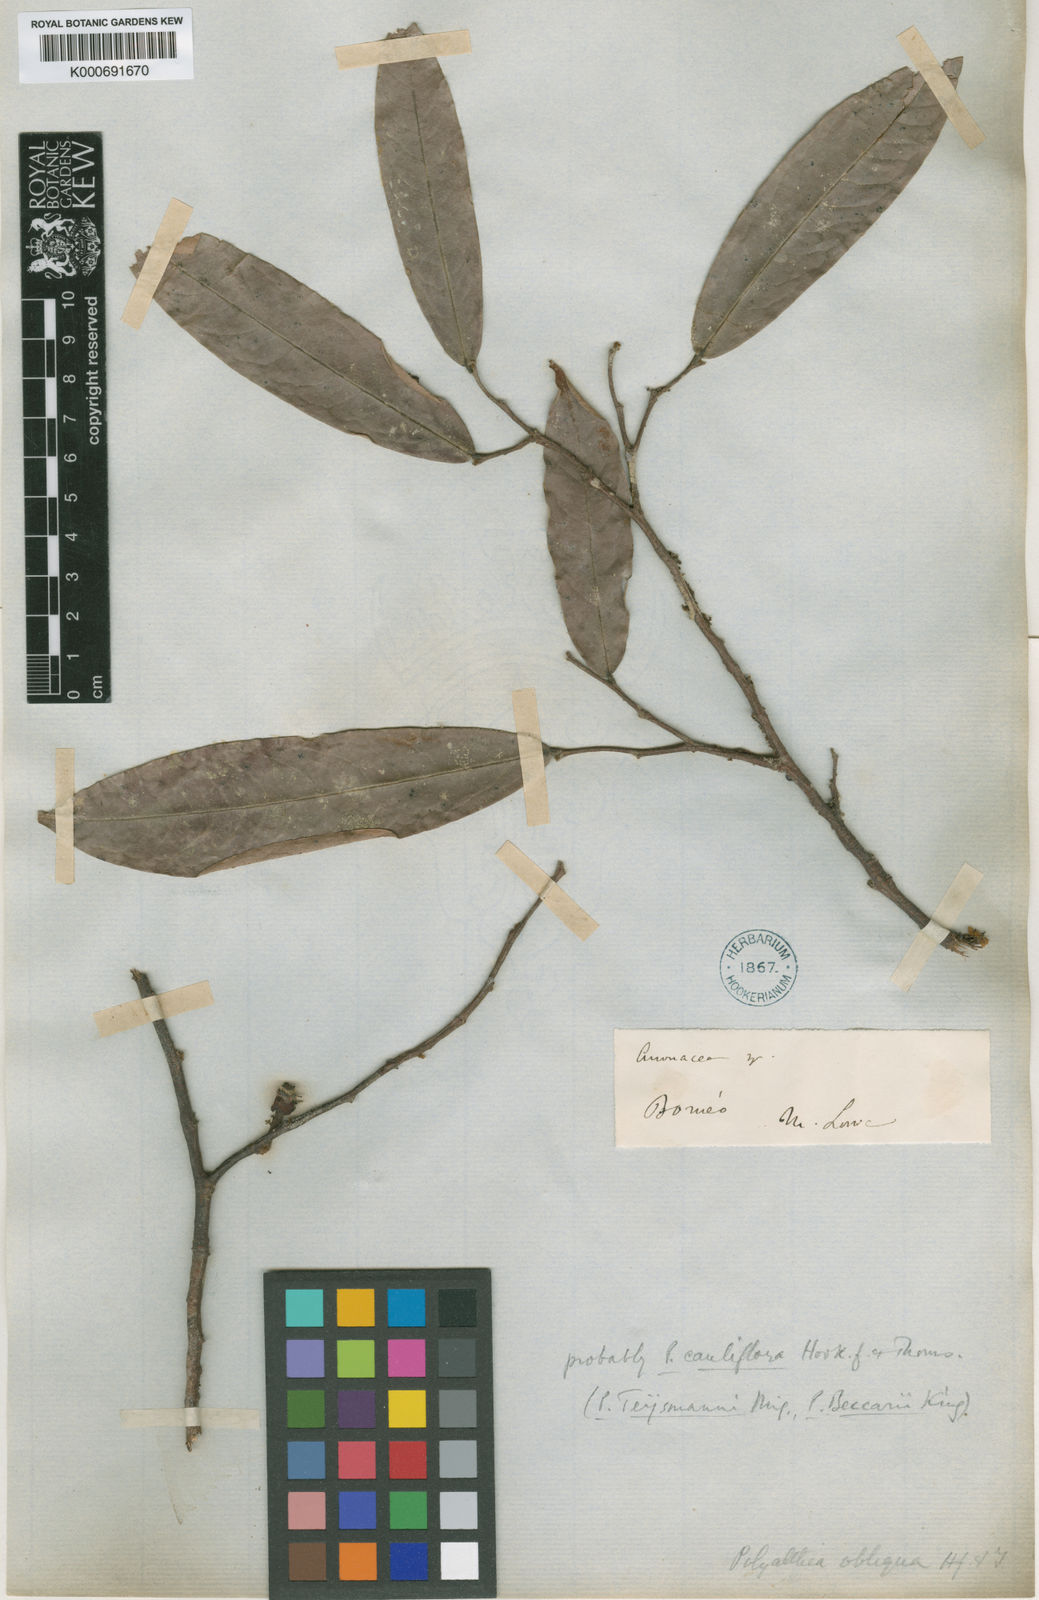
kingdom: Plantae
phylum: Tracheophyta
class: Magnoliopsida
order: Magnoliales
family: Annonaceae
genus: Polyalthia
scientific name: Polyalthia obliqua
